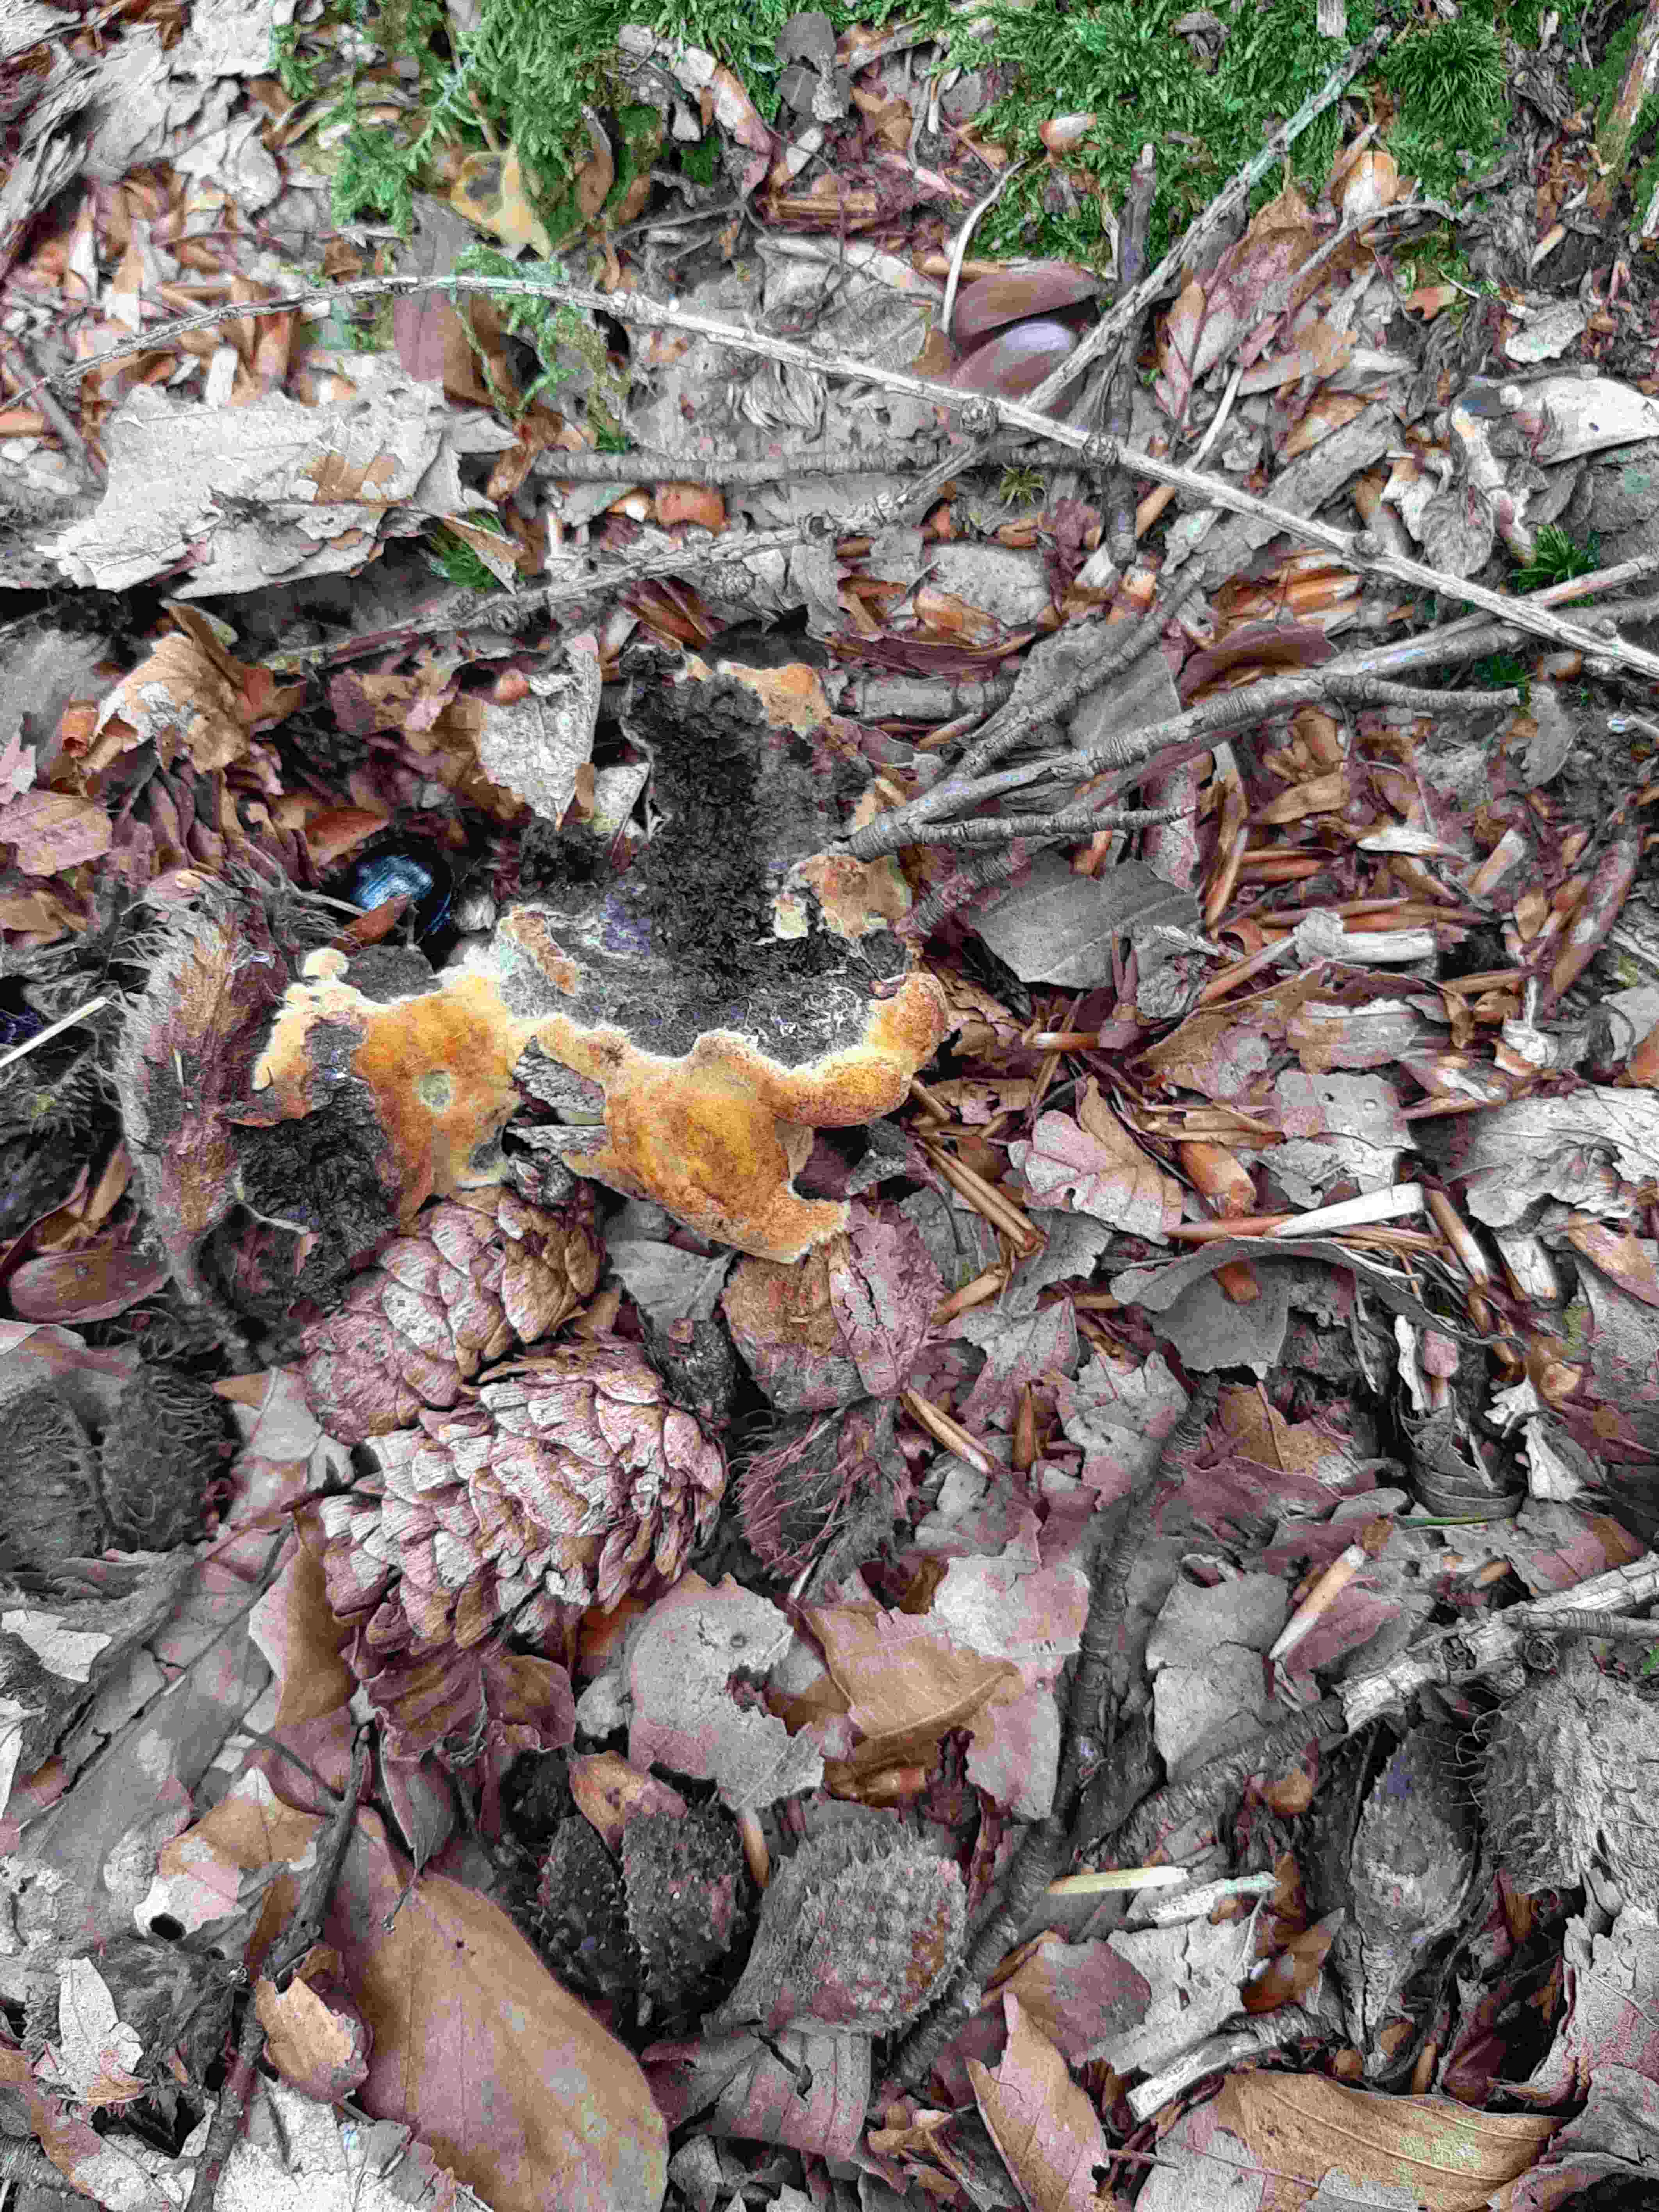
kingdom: Fungi
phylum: Basidiomycota
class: Agaricomycetes
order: Polyporales
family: Laetiporaceae
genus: Phaeolus
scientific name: Phaeolus schweinitzii
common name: brunporesvamp
